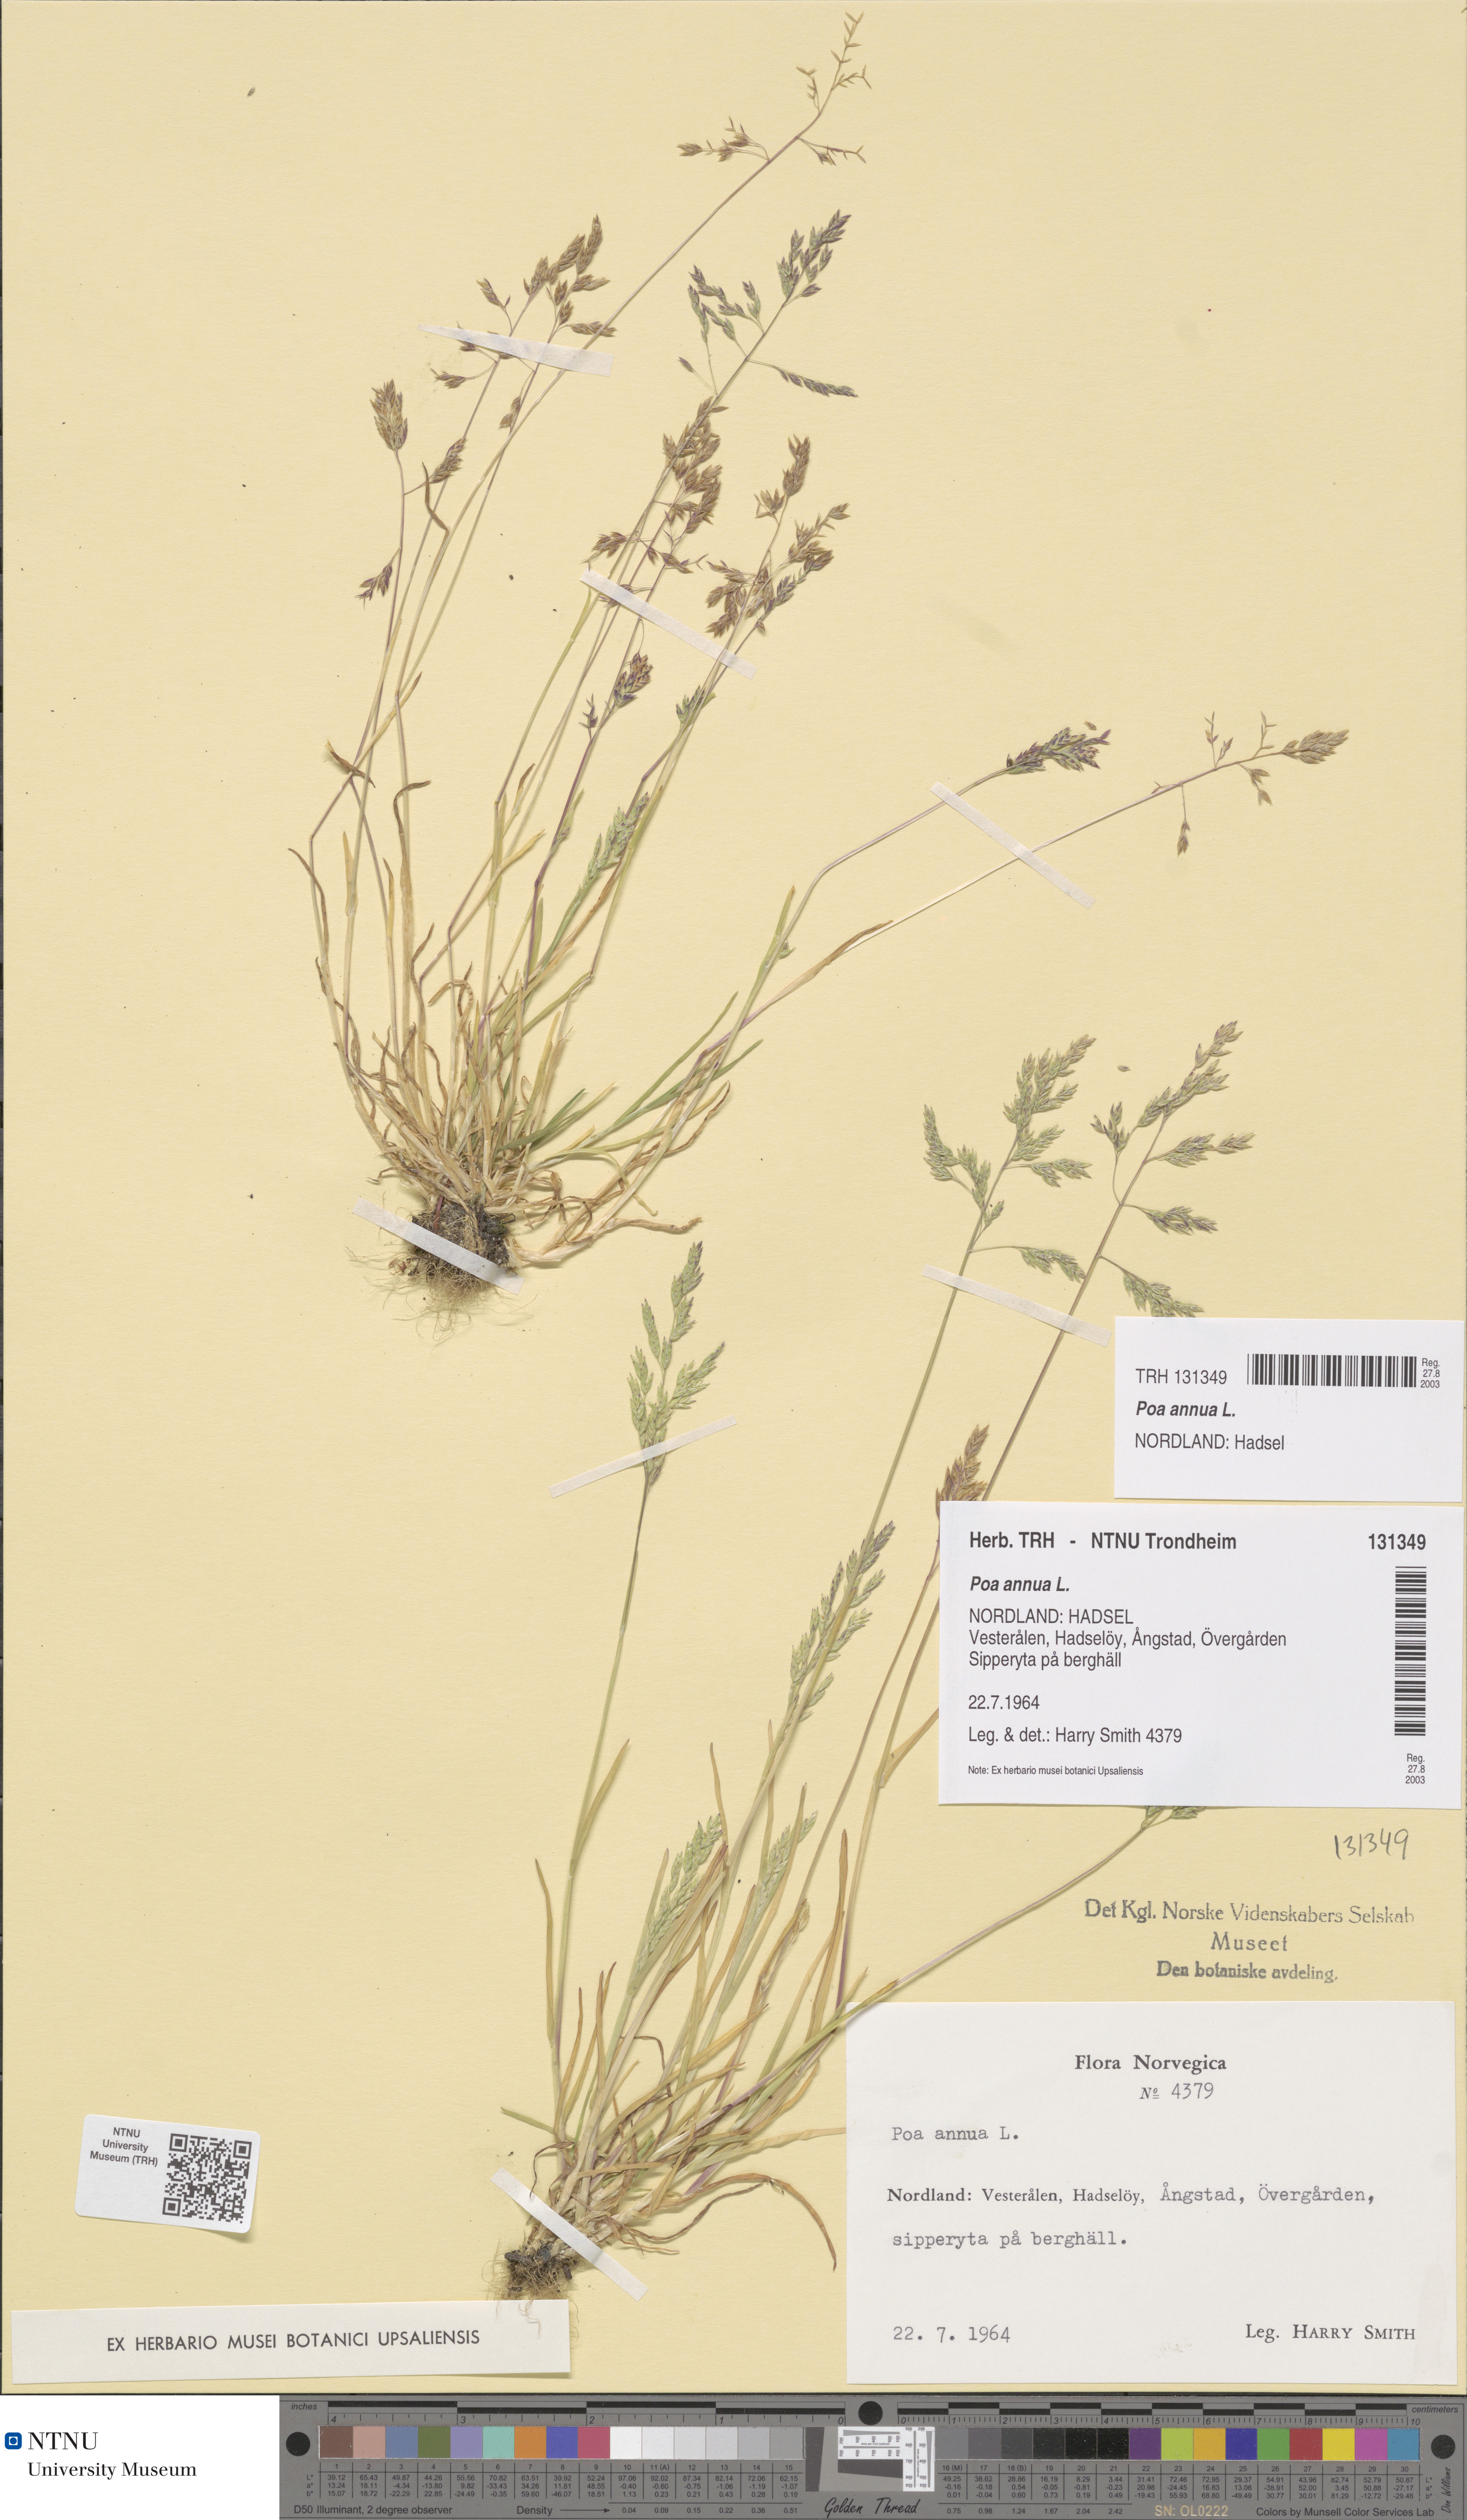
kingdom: Plantae
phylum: Tracheophyta
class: Liliopsida
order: Poales
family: Poaceae
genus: Poa
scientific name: Poa annua
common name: Annual bluegrass
